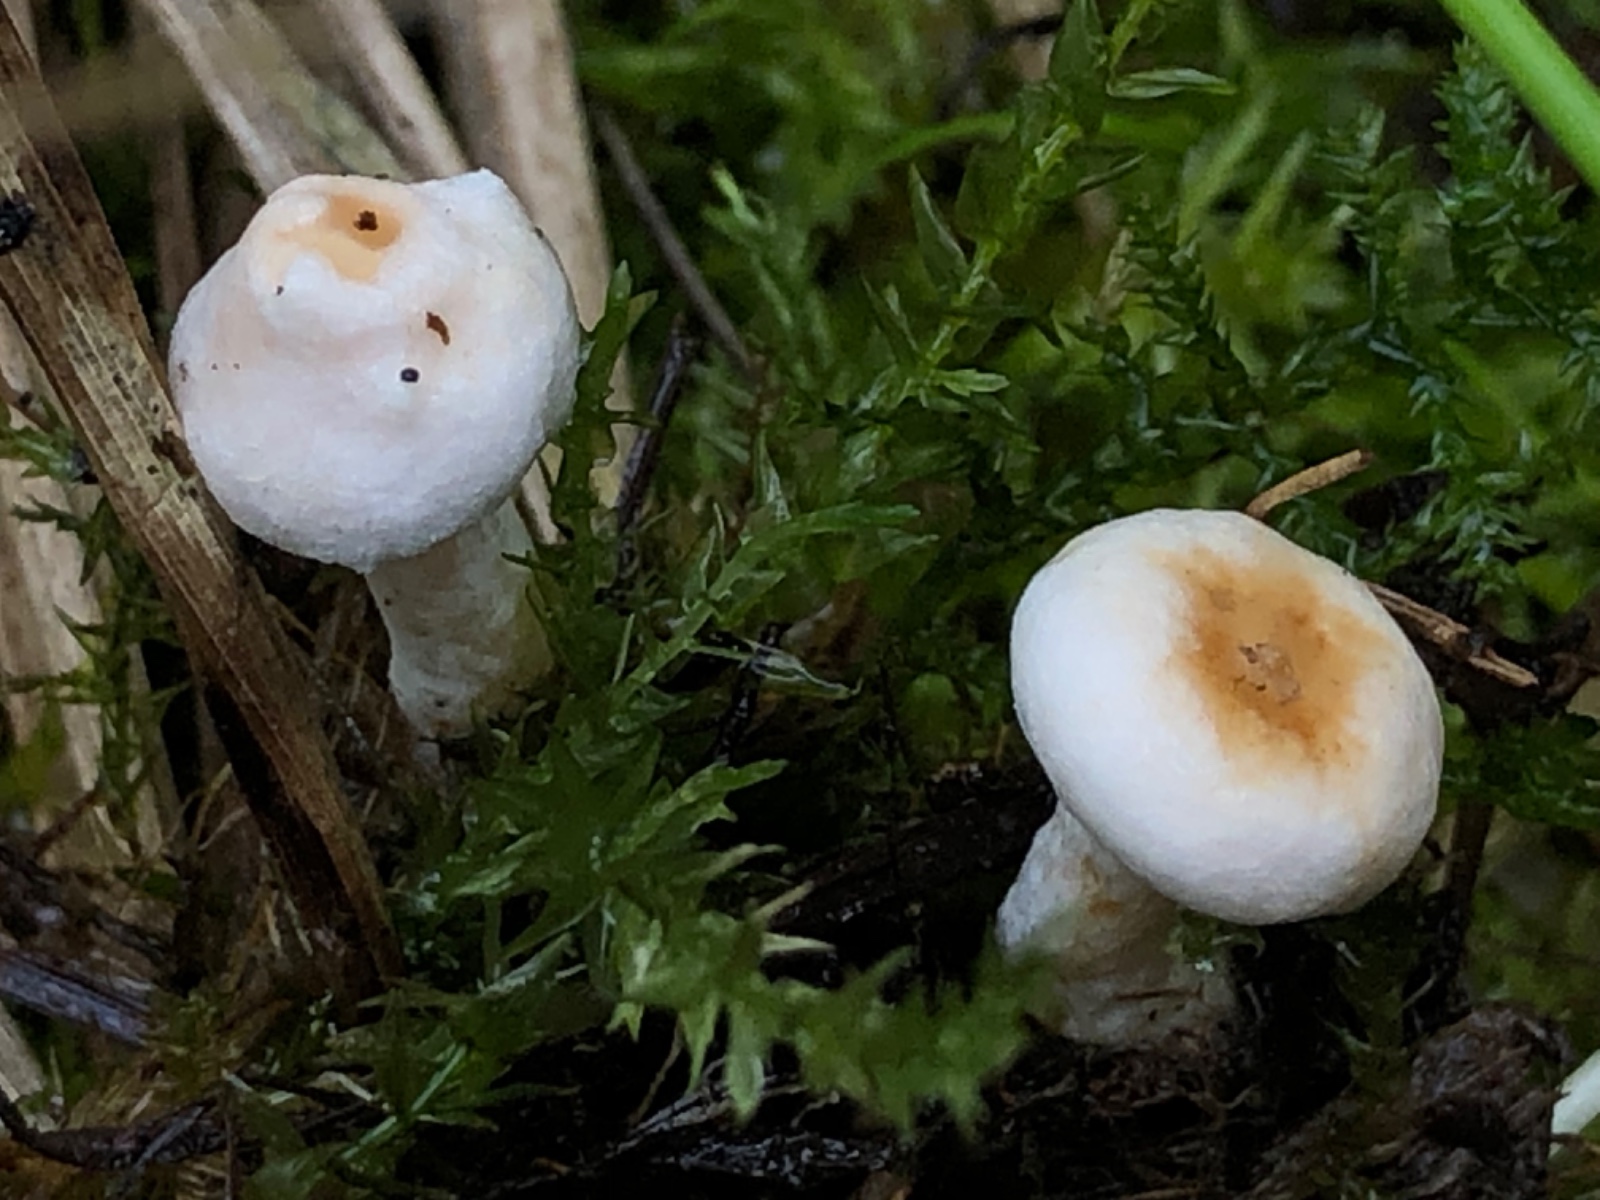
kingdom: Fungi
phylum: Basidiomycota
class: Agaricomycetes
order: Russulales
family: Russulaceae
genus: Lactarius
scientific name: Lactarius scoticus
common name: tørve-mælkehat
